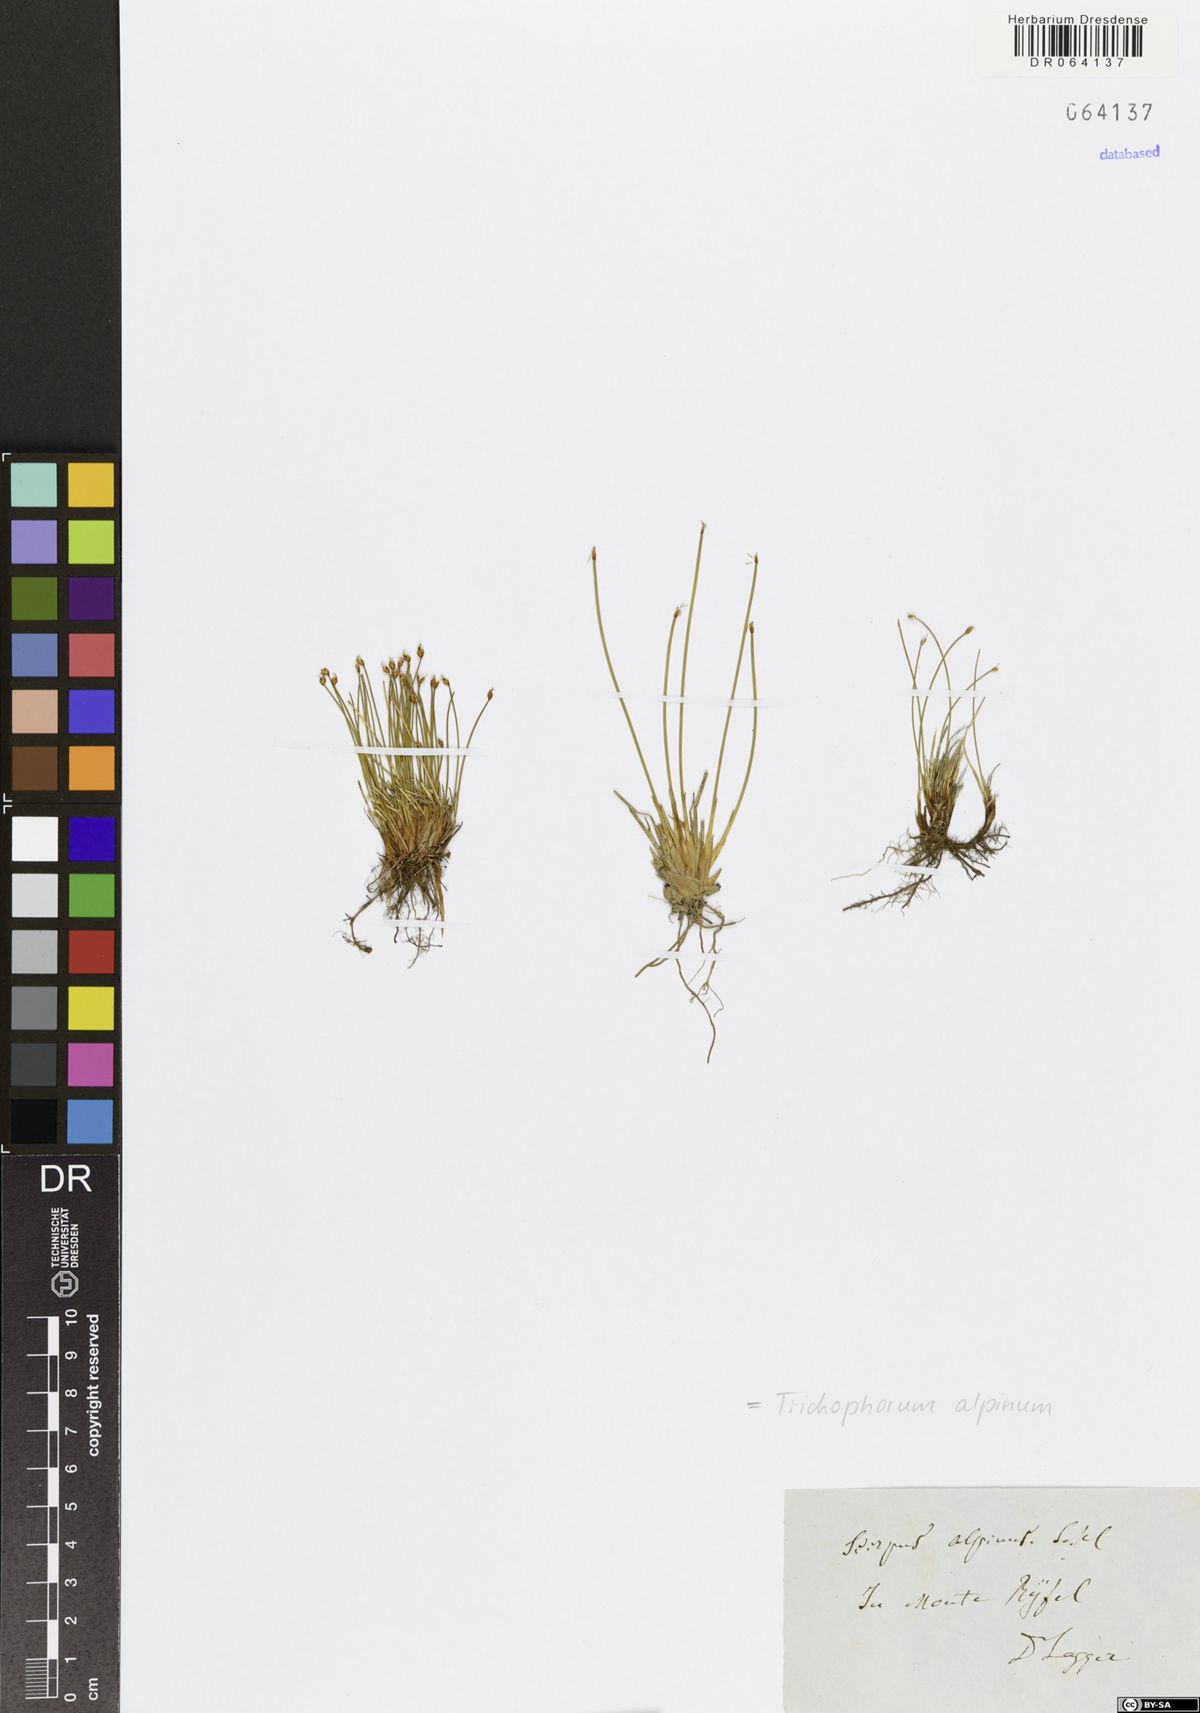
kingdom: Plantae
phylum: Tracheophyta
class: Liliopsida
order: Poales
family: Cyperaceae
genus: Trichophorum
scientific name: Trichophorum alpinum
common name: Alpine bulrush
